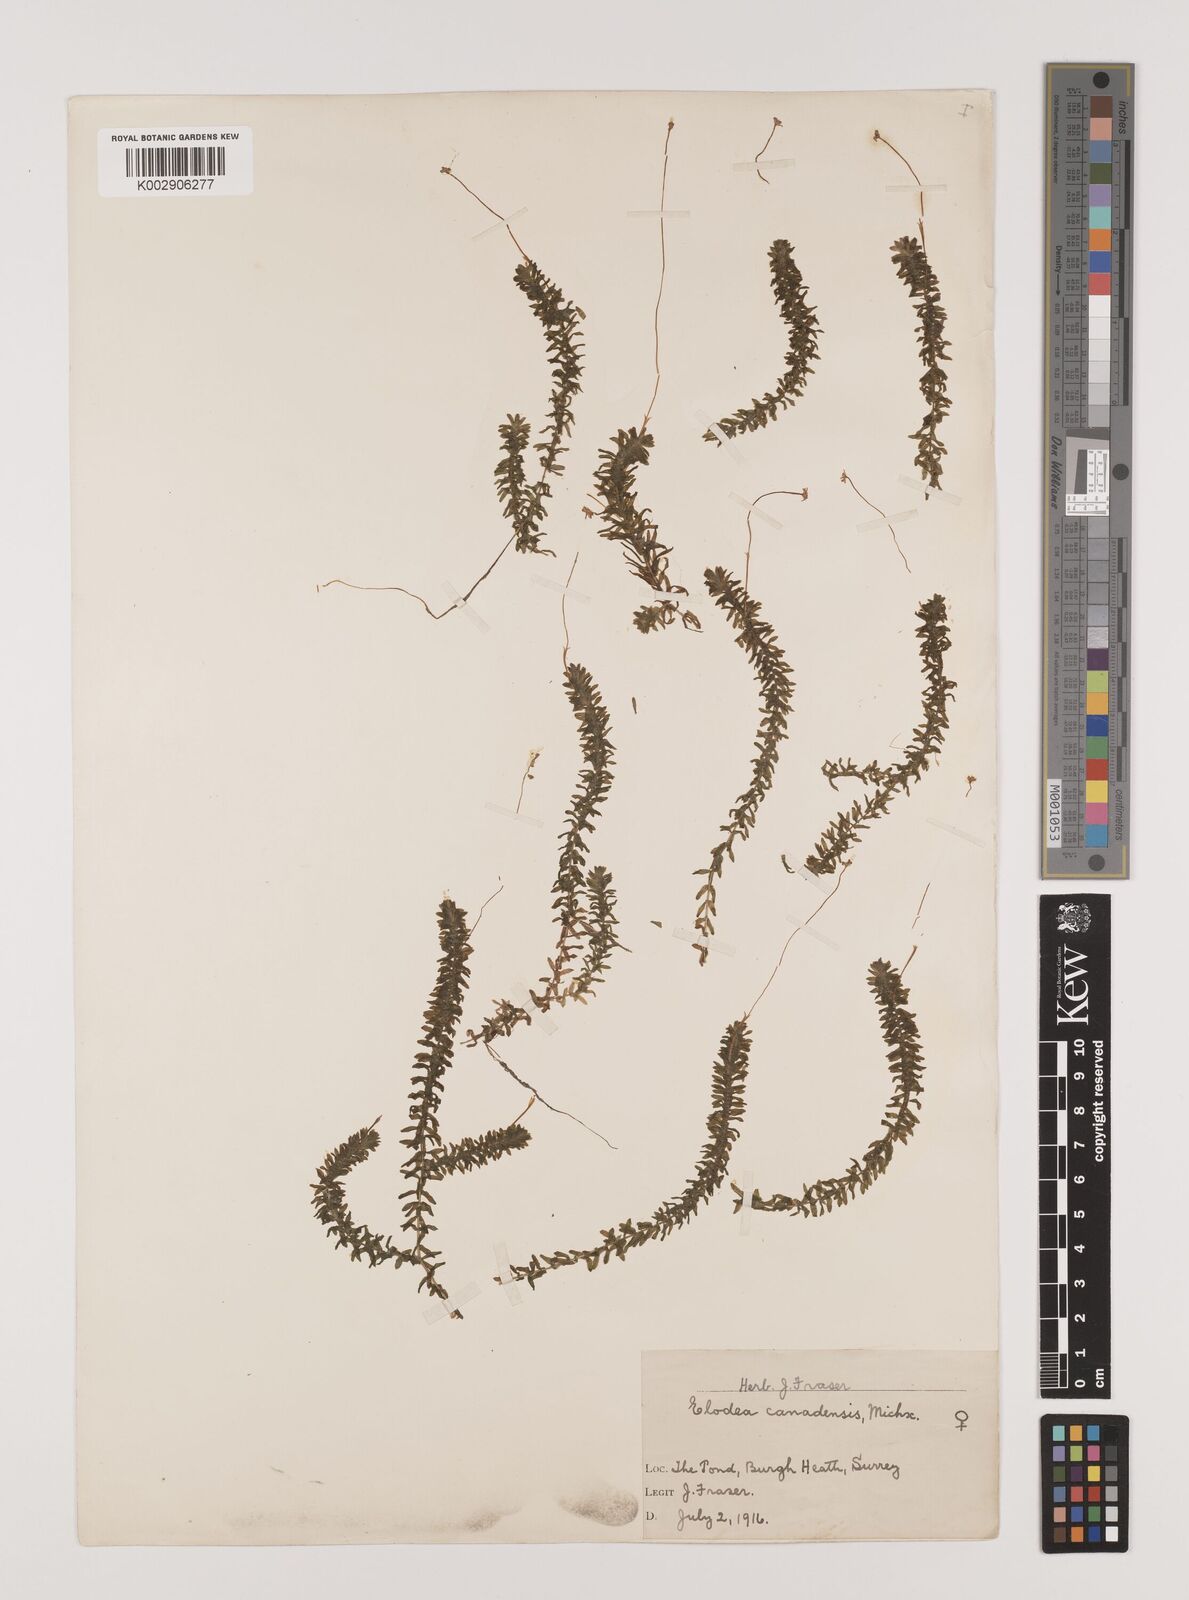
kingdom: Plantae
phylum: Tracheophyta
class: Liliopsida
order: Alismatales
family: Hydrocharitaceae
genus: Elodea
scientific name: Elodea canadensis
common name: Canadian waterweed
